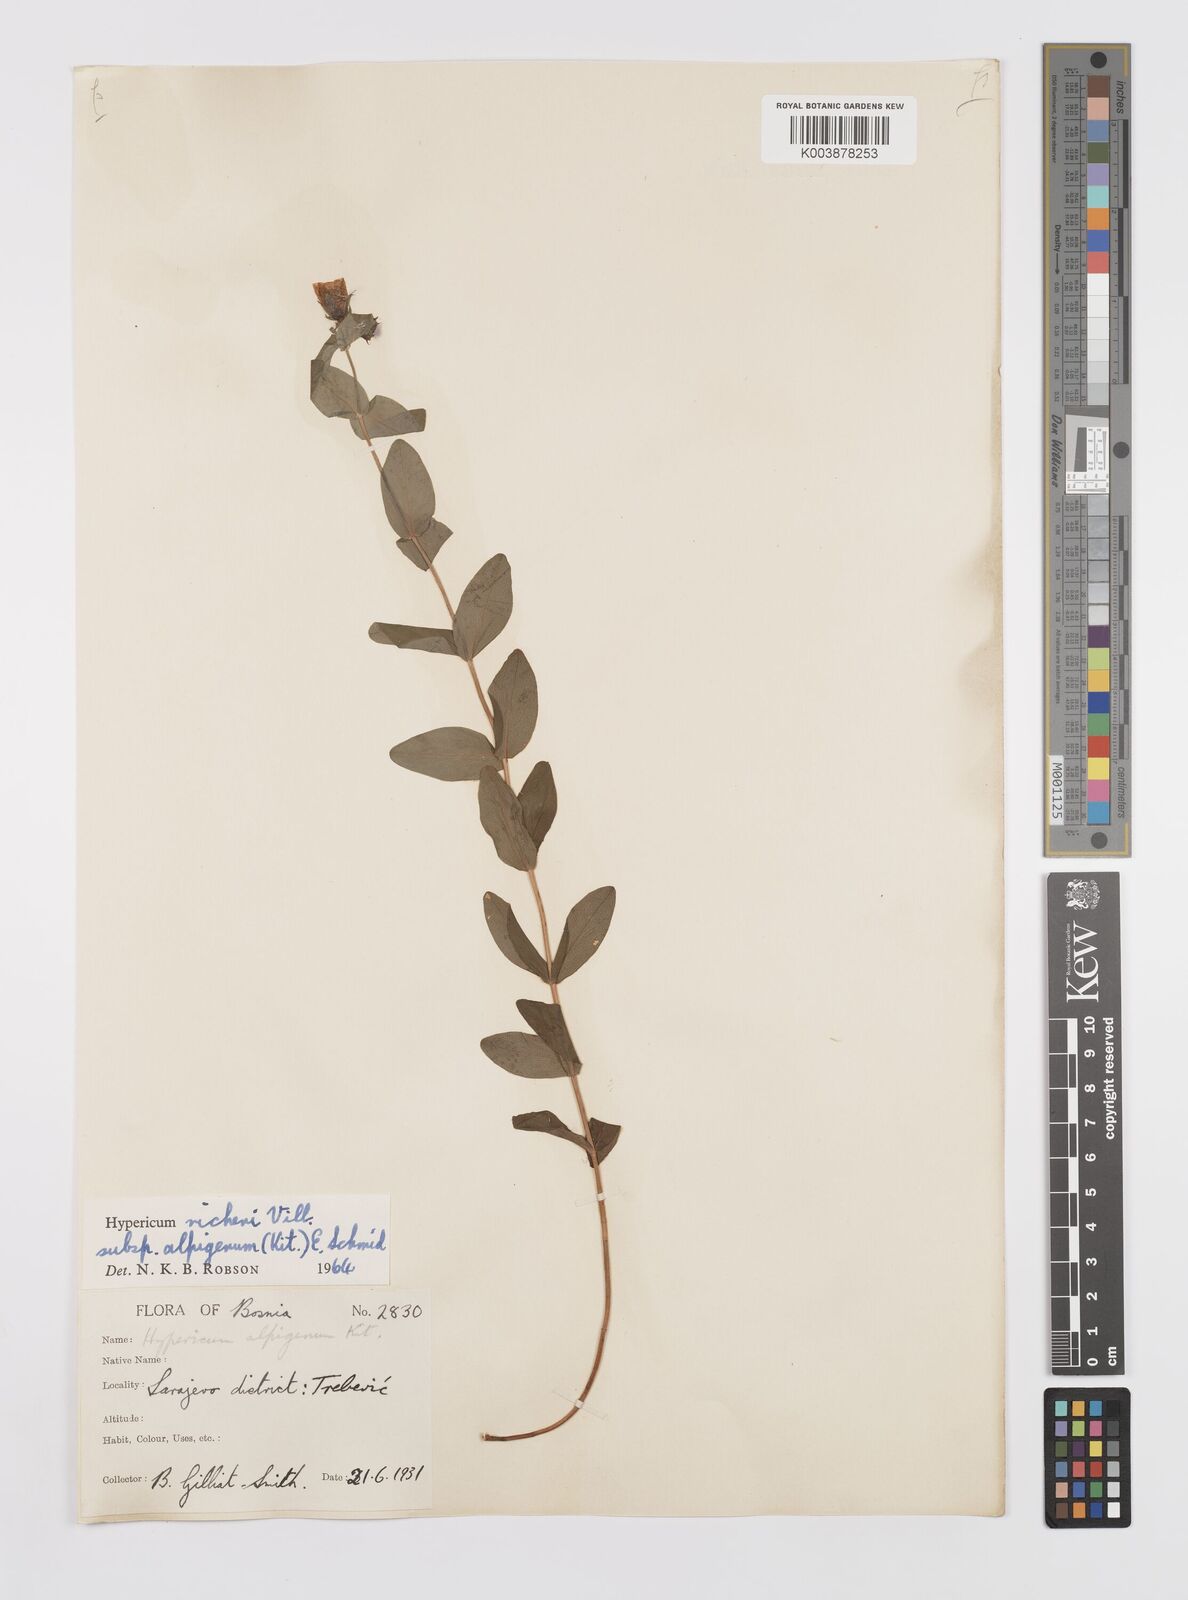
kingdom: Plantae
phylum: Tracheophyta
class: Magnoliopsida
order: Malpighiales
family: Hypericaceae
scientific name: Hypericaceae
